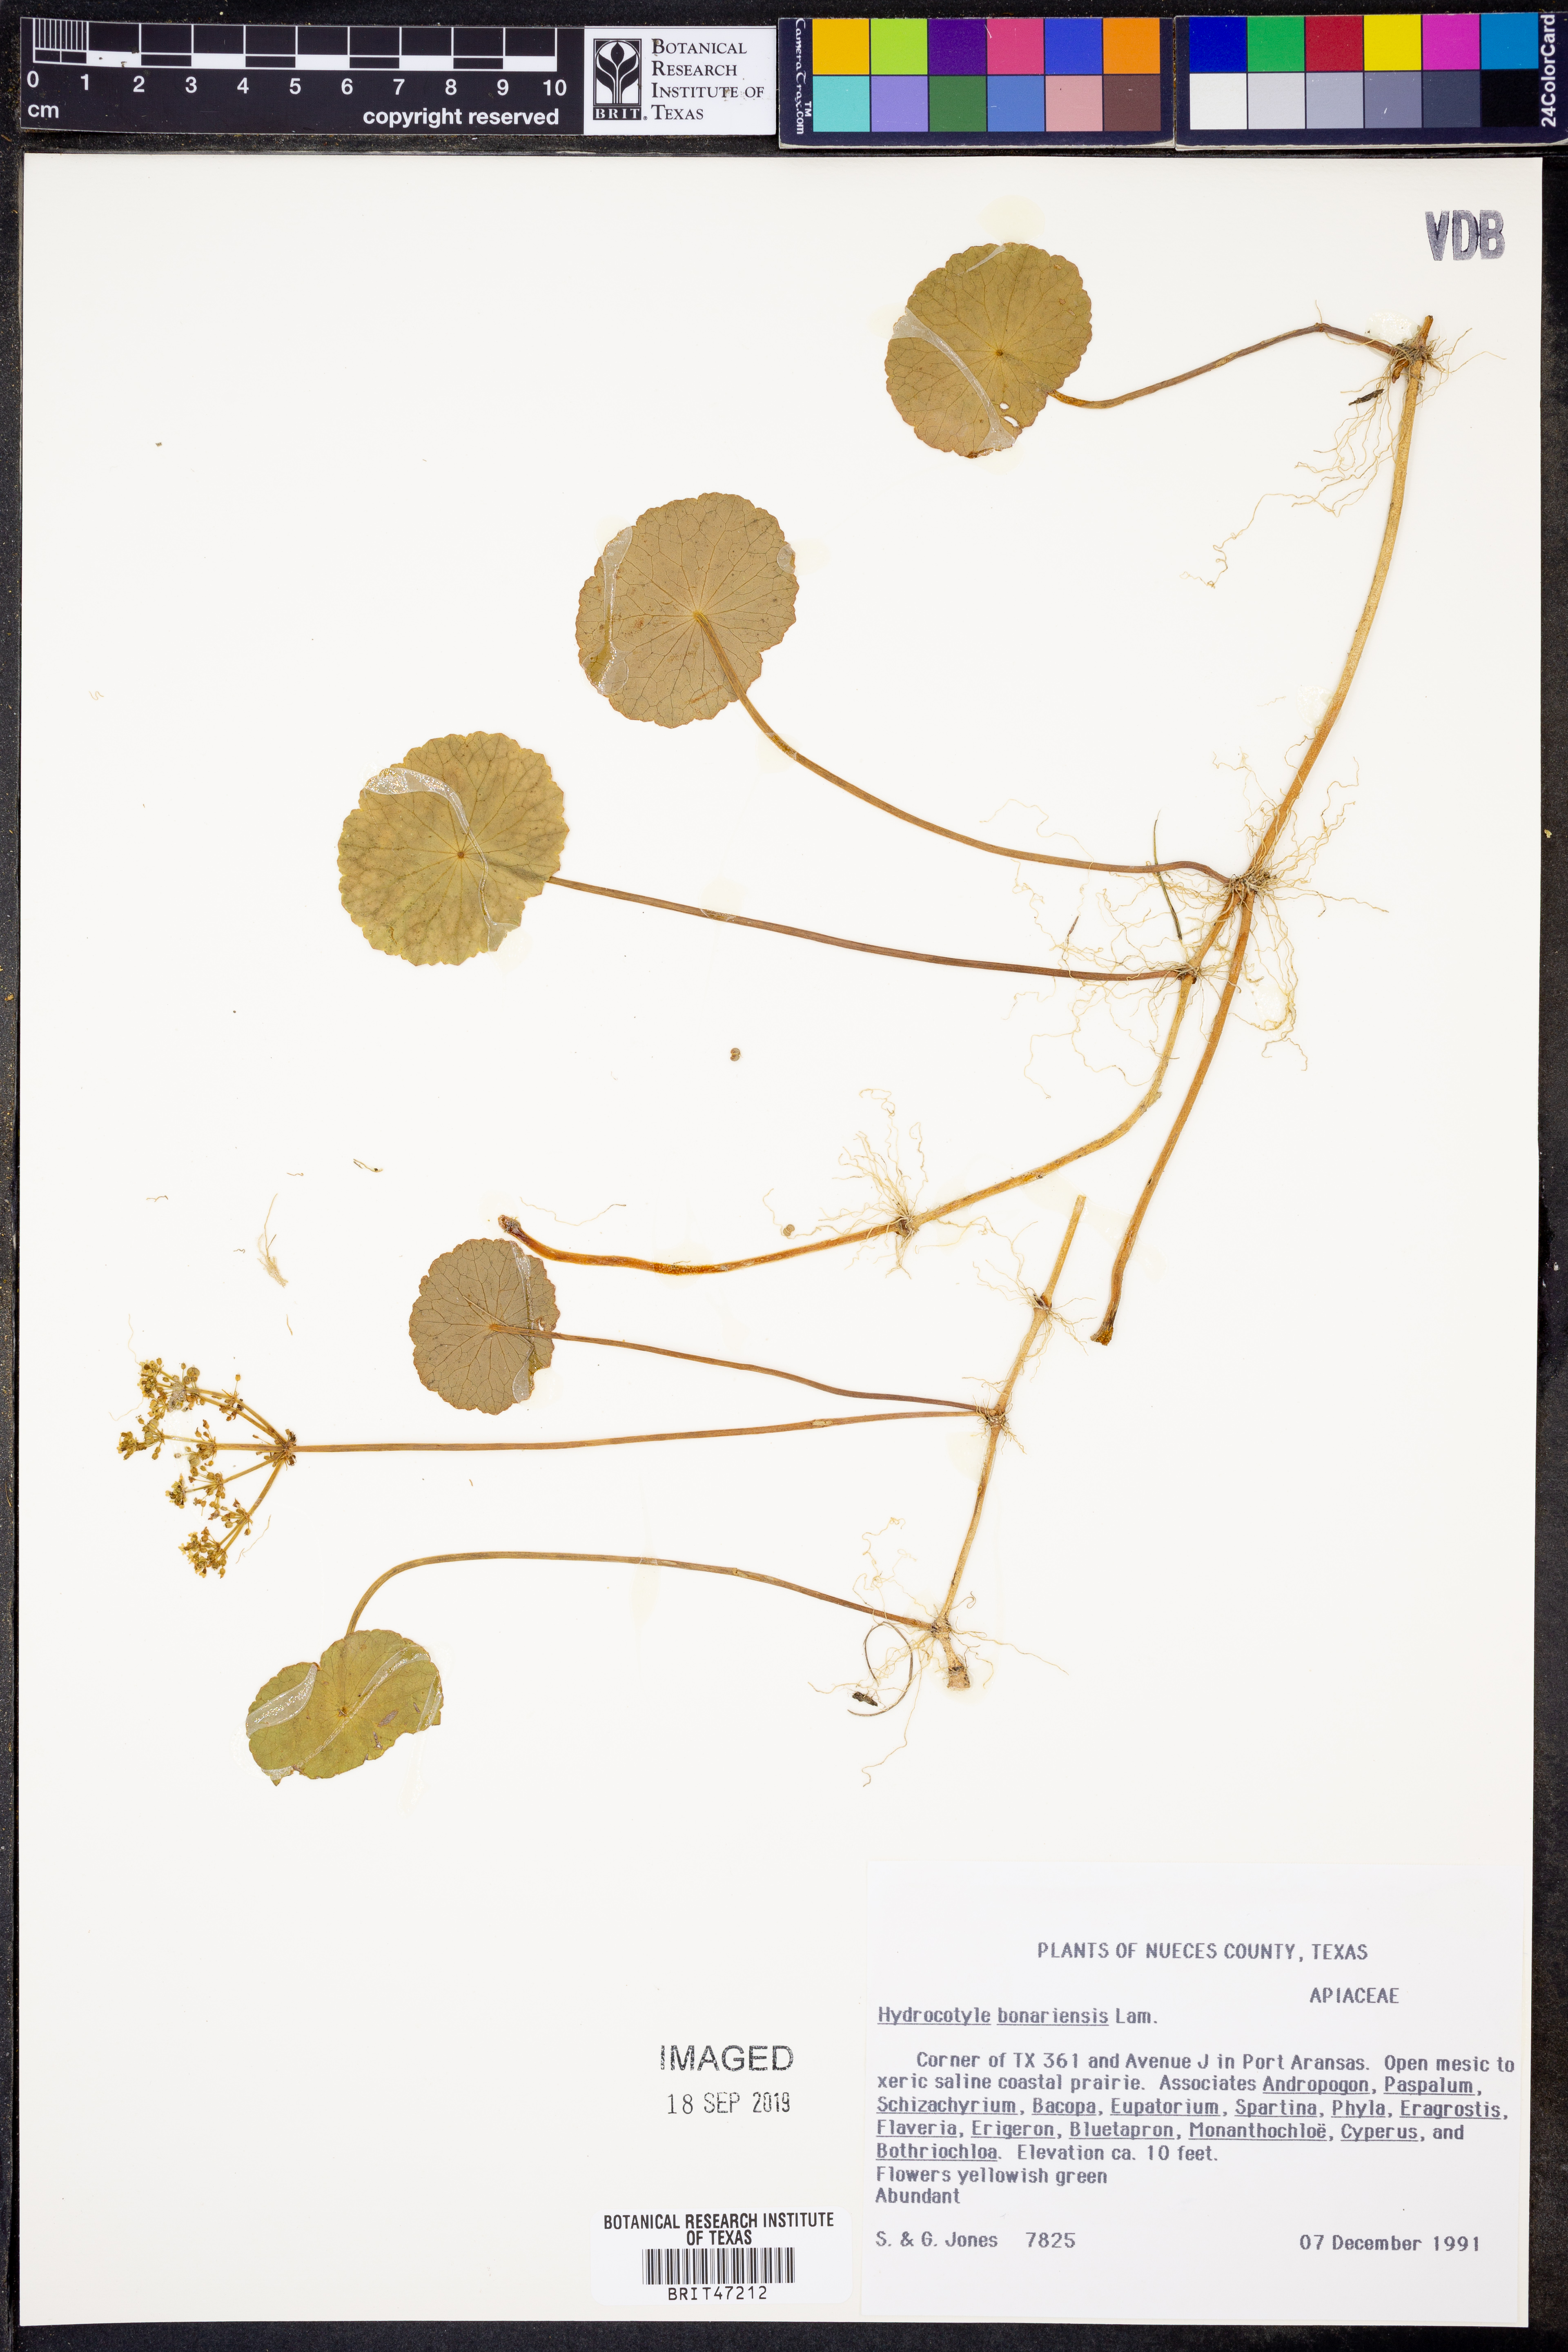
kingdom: Plantae
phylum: Tracheophyta
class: Magnoliopsida
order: Apiales
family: Araliaceae
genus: Hydrocotyle
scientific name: Hydrocotyle bonariensis
